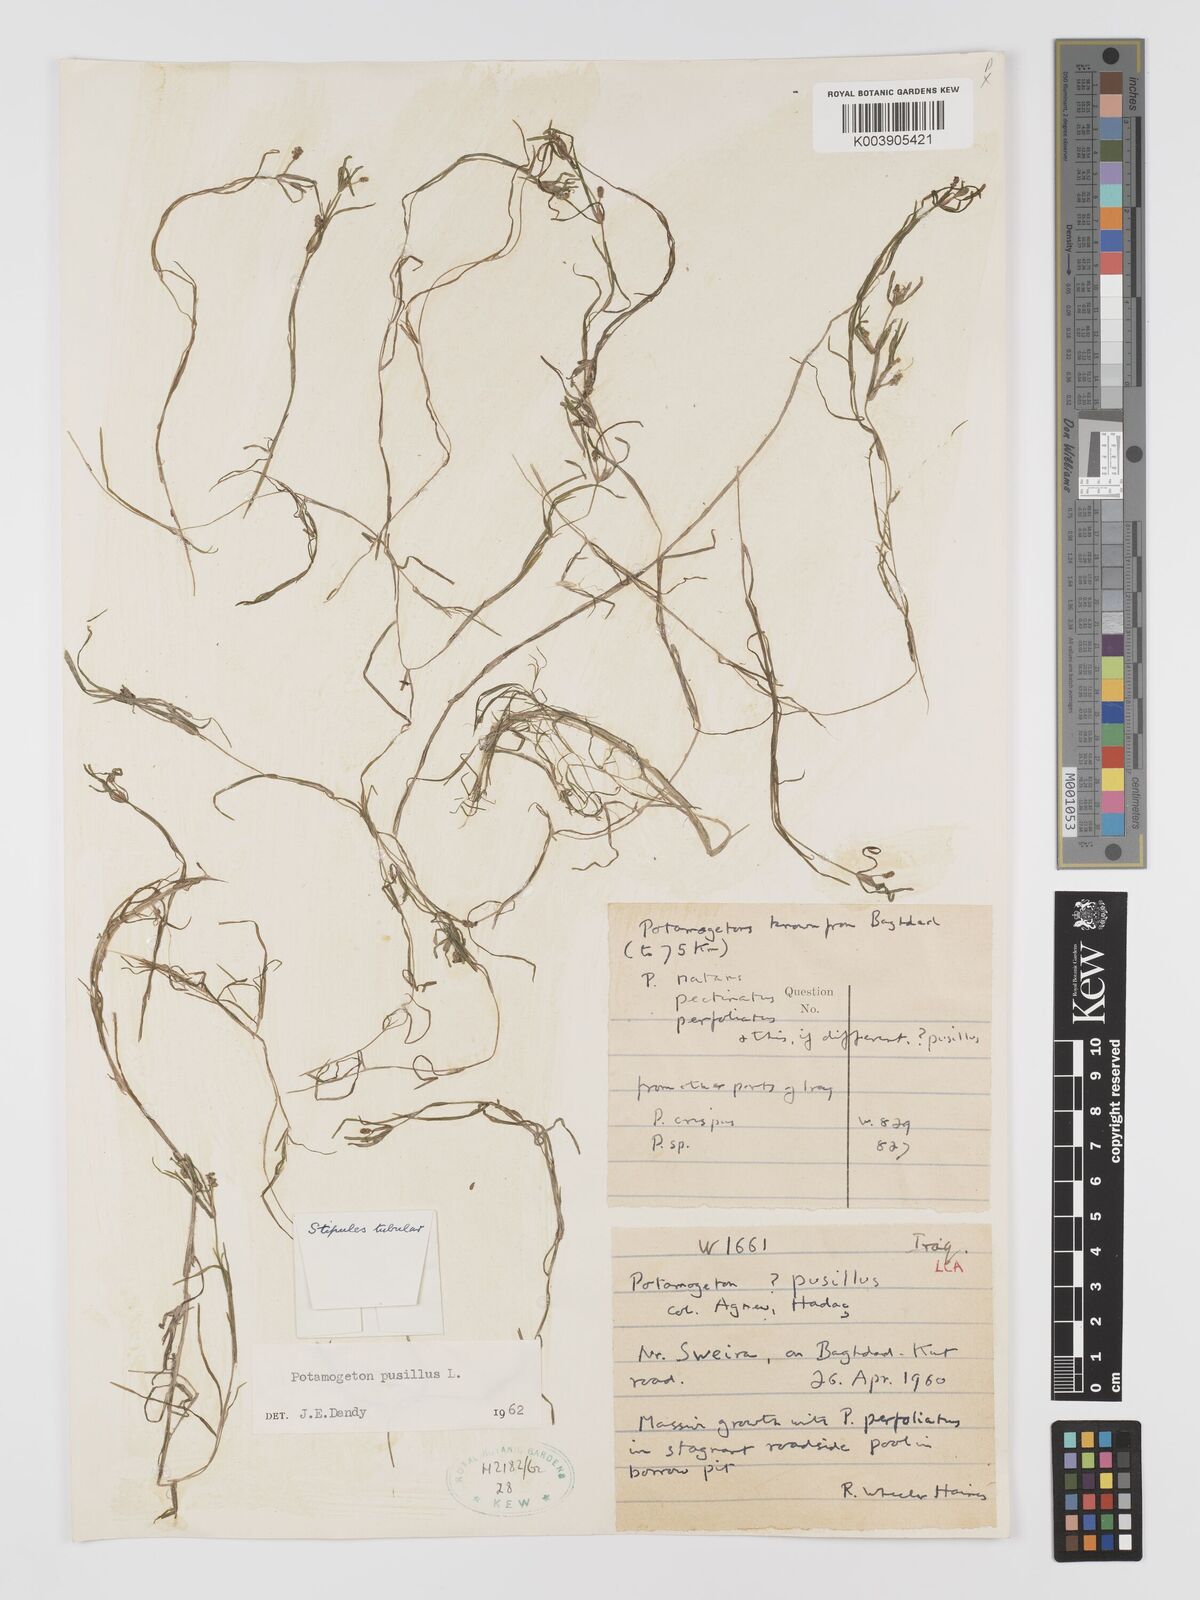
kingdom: Plantae
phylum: Tracheophyta
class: Liliopsida
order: Alismatales
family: Potamogetonaceae
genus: Potamogeton
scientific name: Potamogeton pusillus
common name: Lesser pondweed
